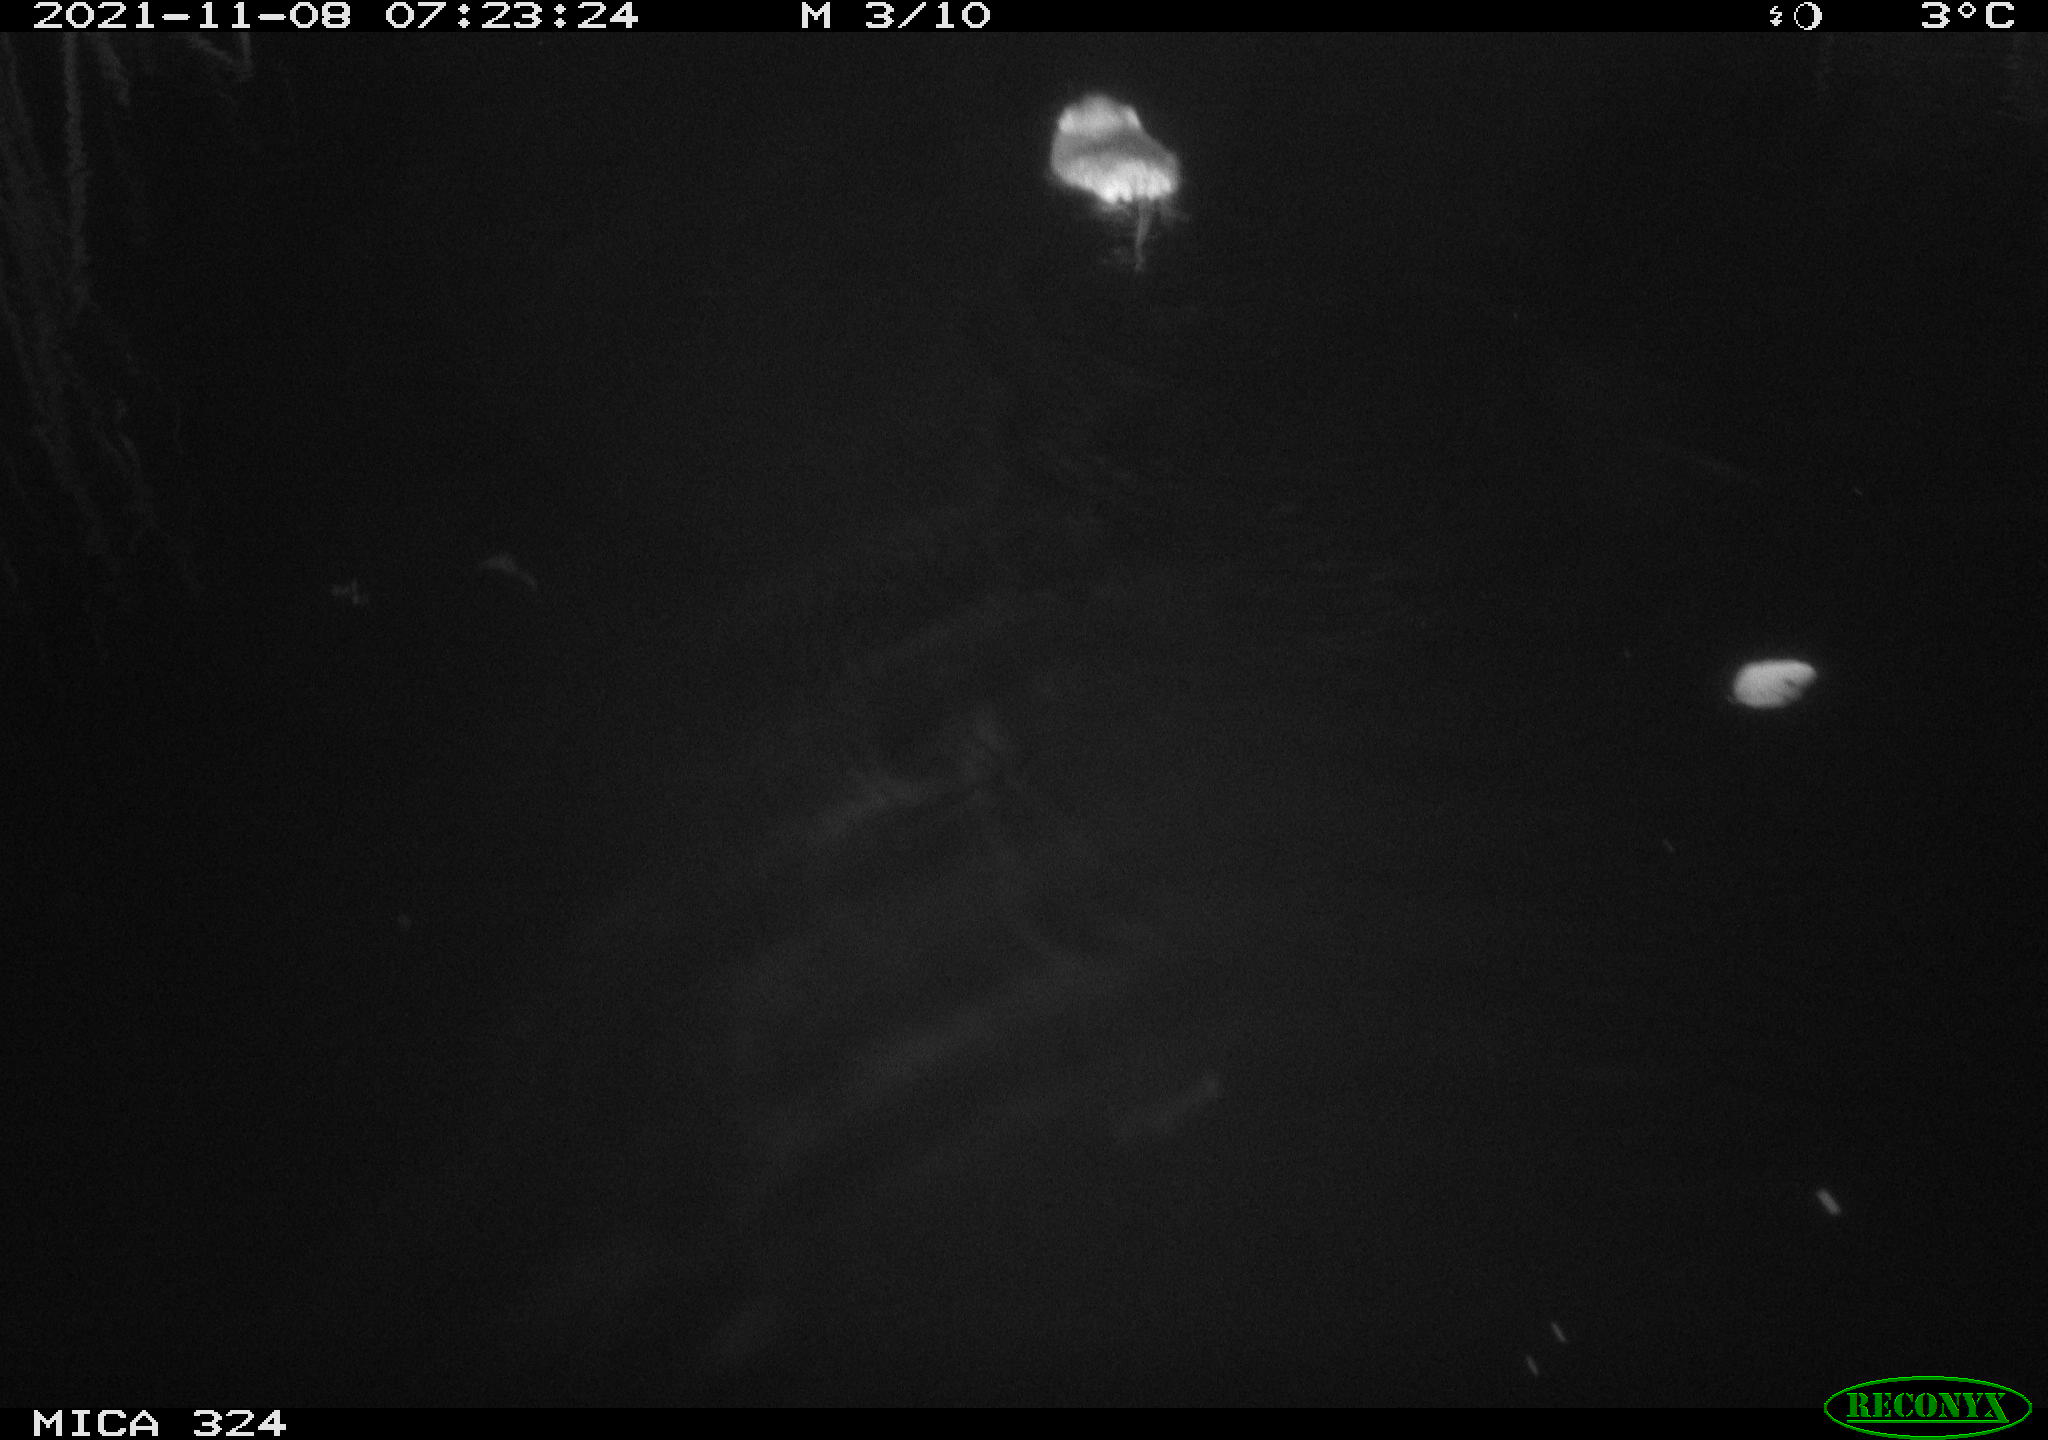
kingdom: Animalia
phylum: Chordata
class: Mammalia
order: Rodentia
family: Cricetidae
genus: Ondatra
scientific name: Ondatra zibethicus
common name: Muskrat
